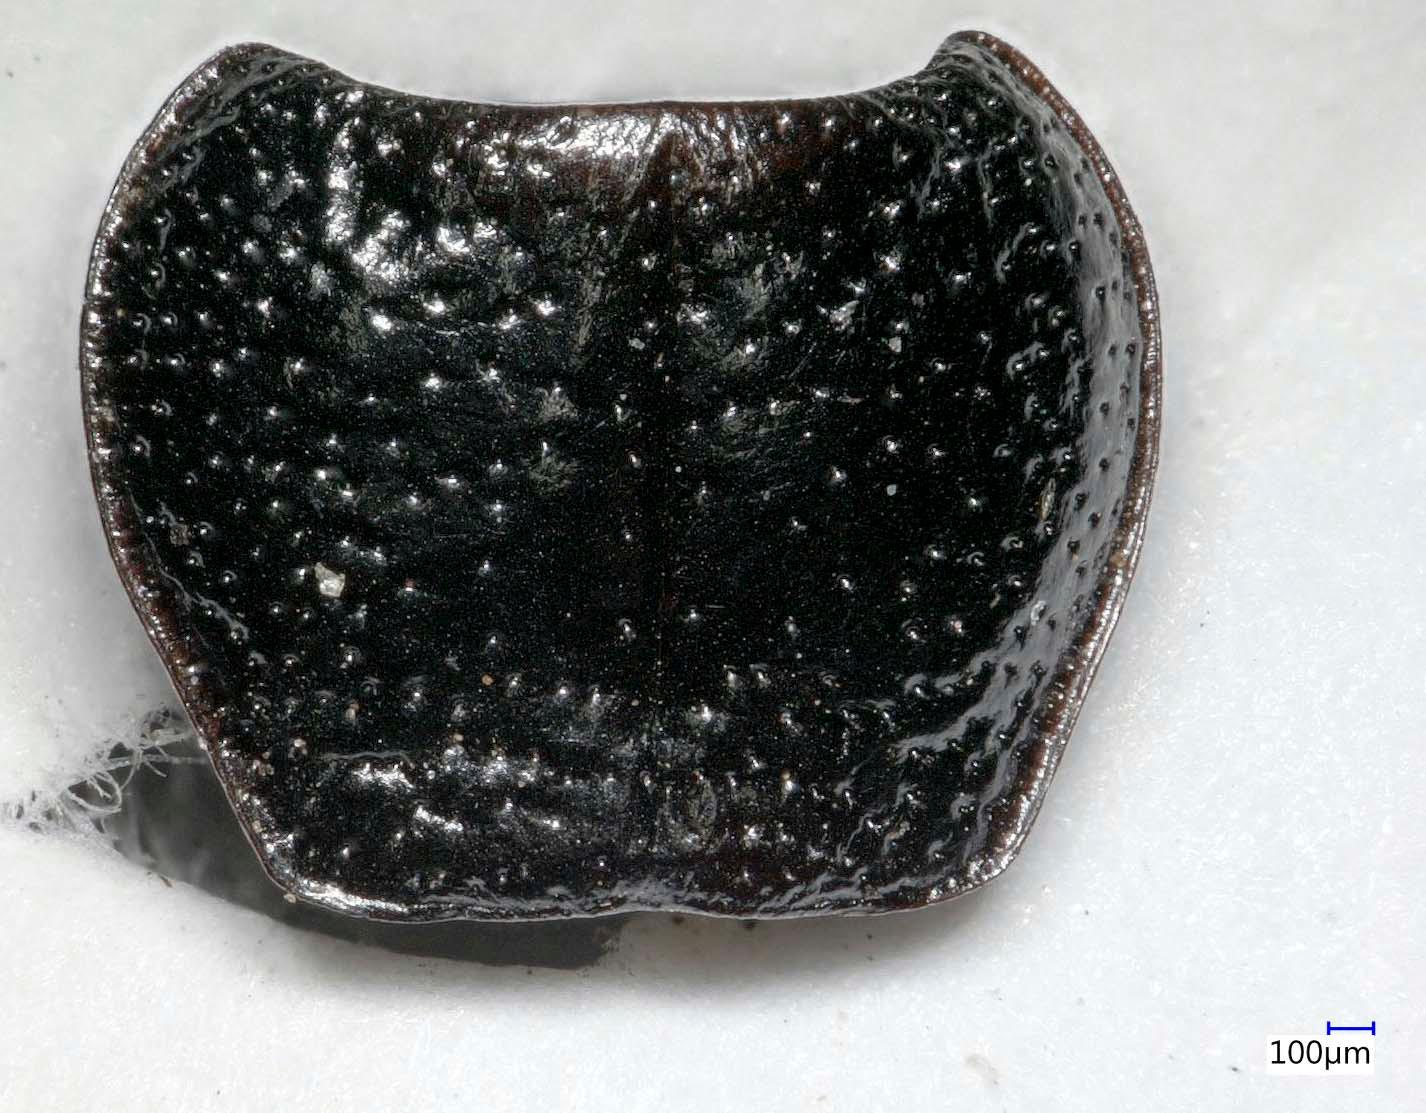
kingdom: Animalia
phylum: Arthropoda
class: Insecta
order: Coleoptera
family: Carabidae
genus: Dicheirus
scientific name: Dicheirus dilatatus
